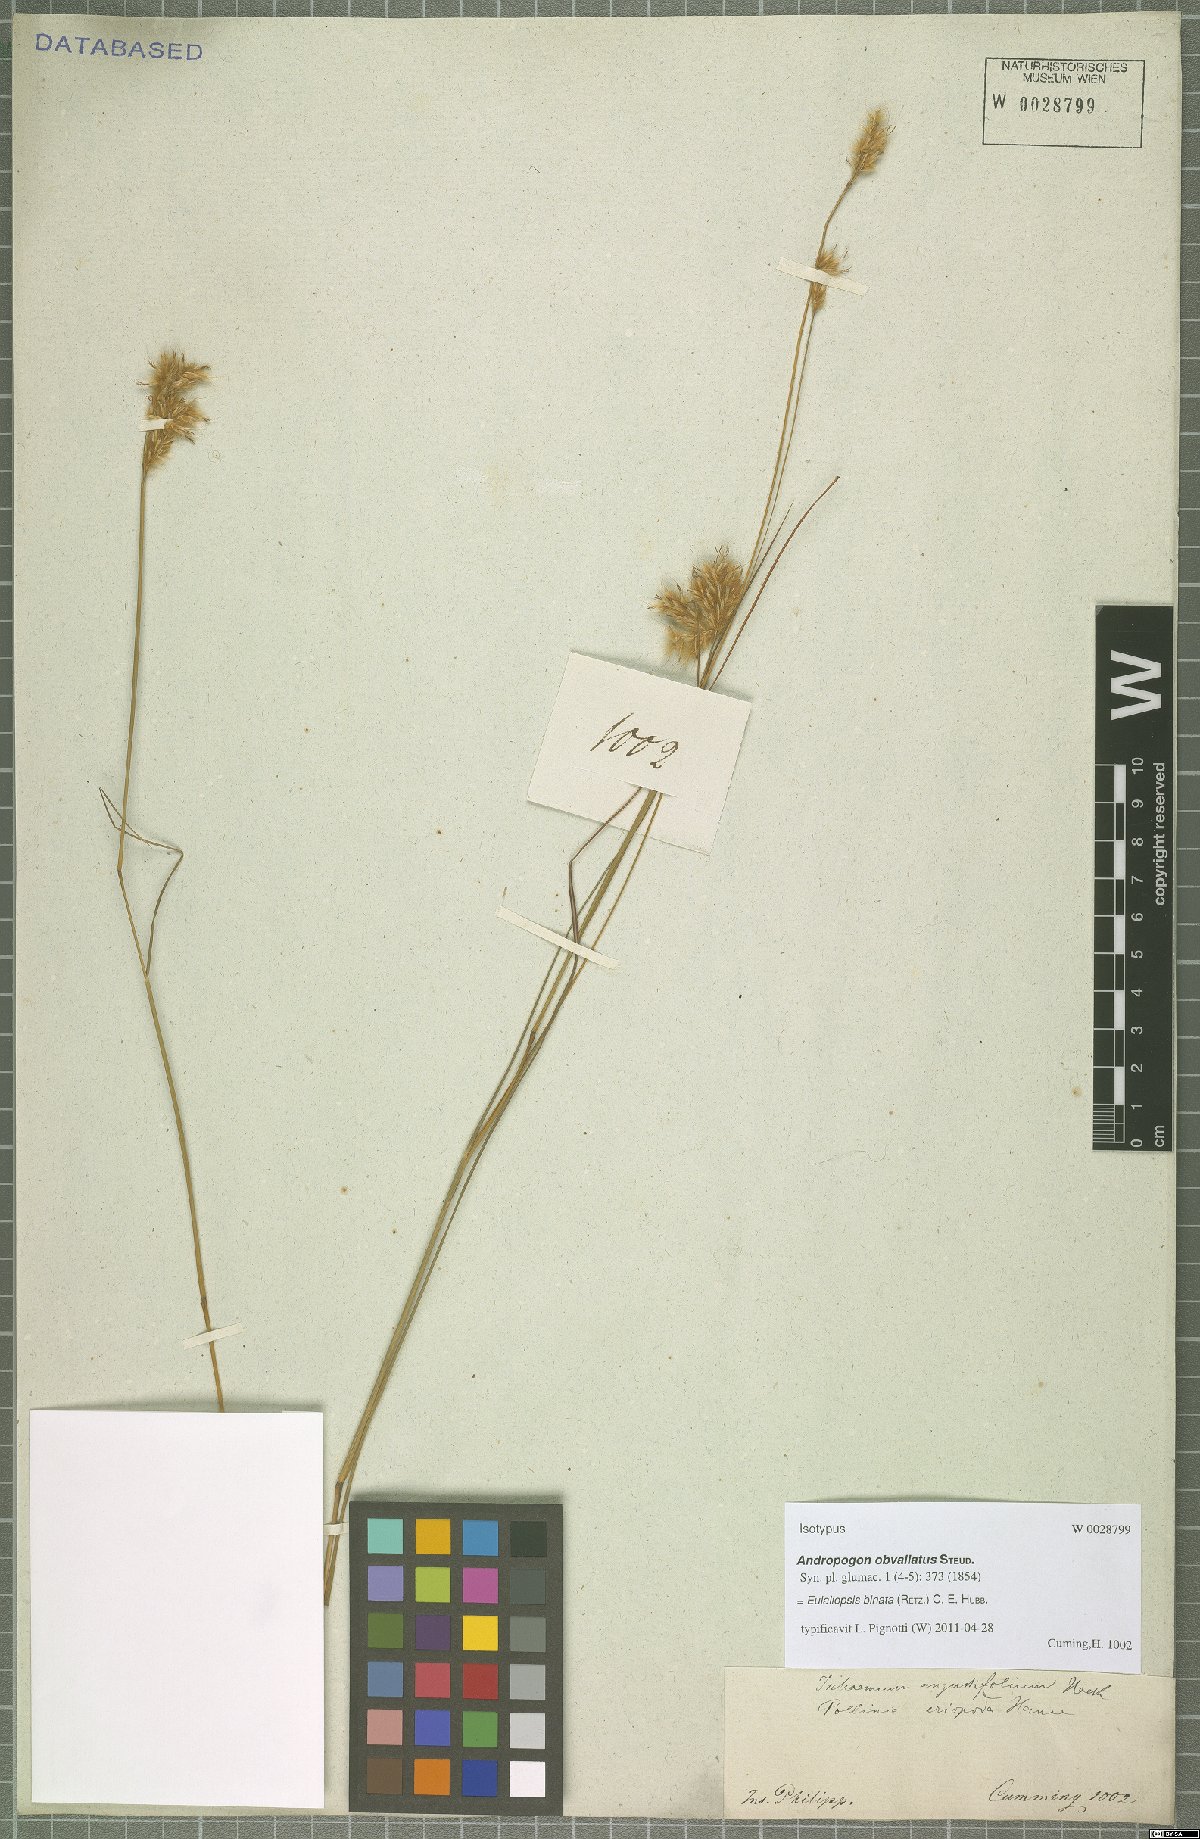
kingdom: Plantae
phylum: Tracheophyta
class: Liliopsida
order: Poales
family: Poaceae
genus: Eulaliopsis
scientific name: Eulaliopsis binata
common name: Baib grass
